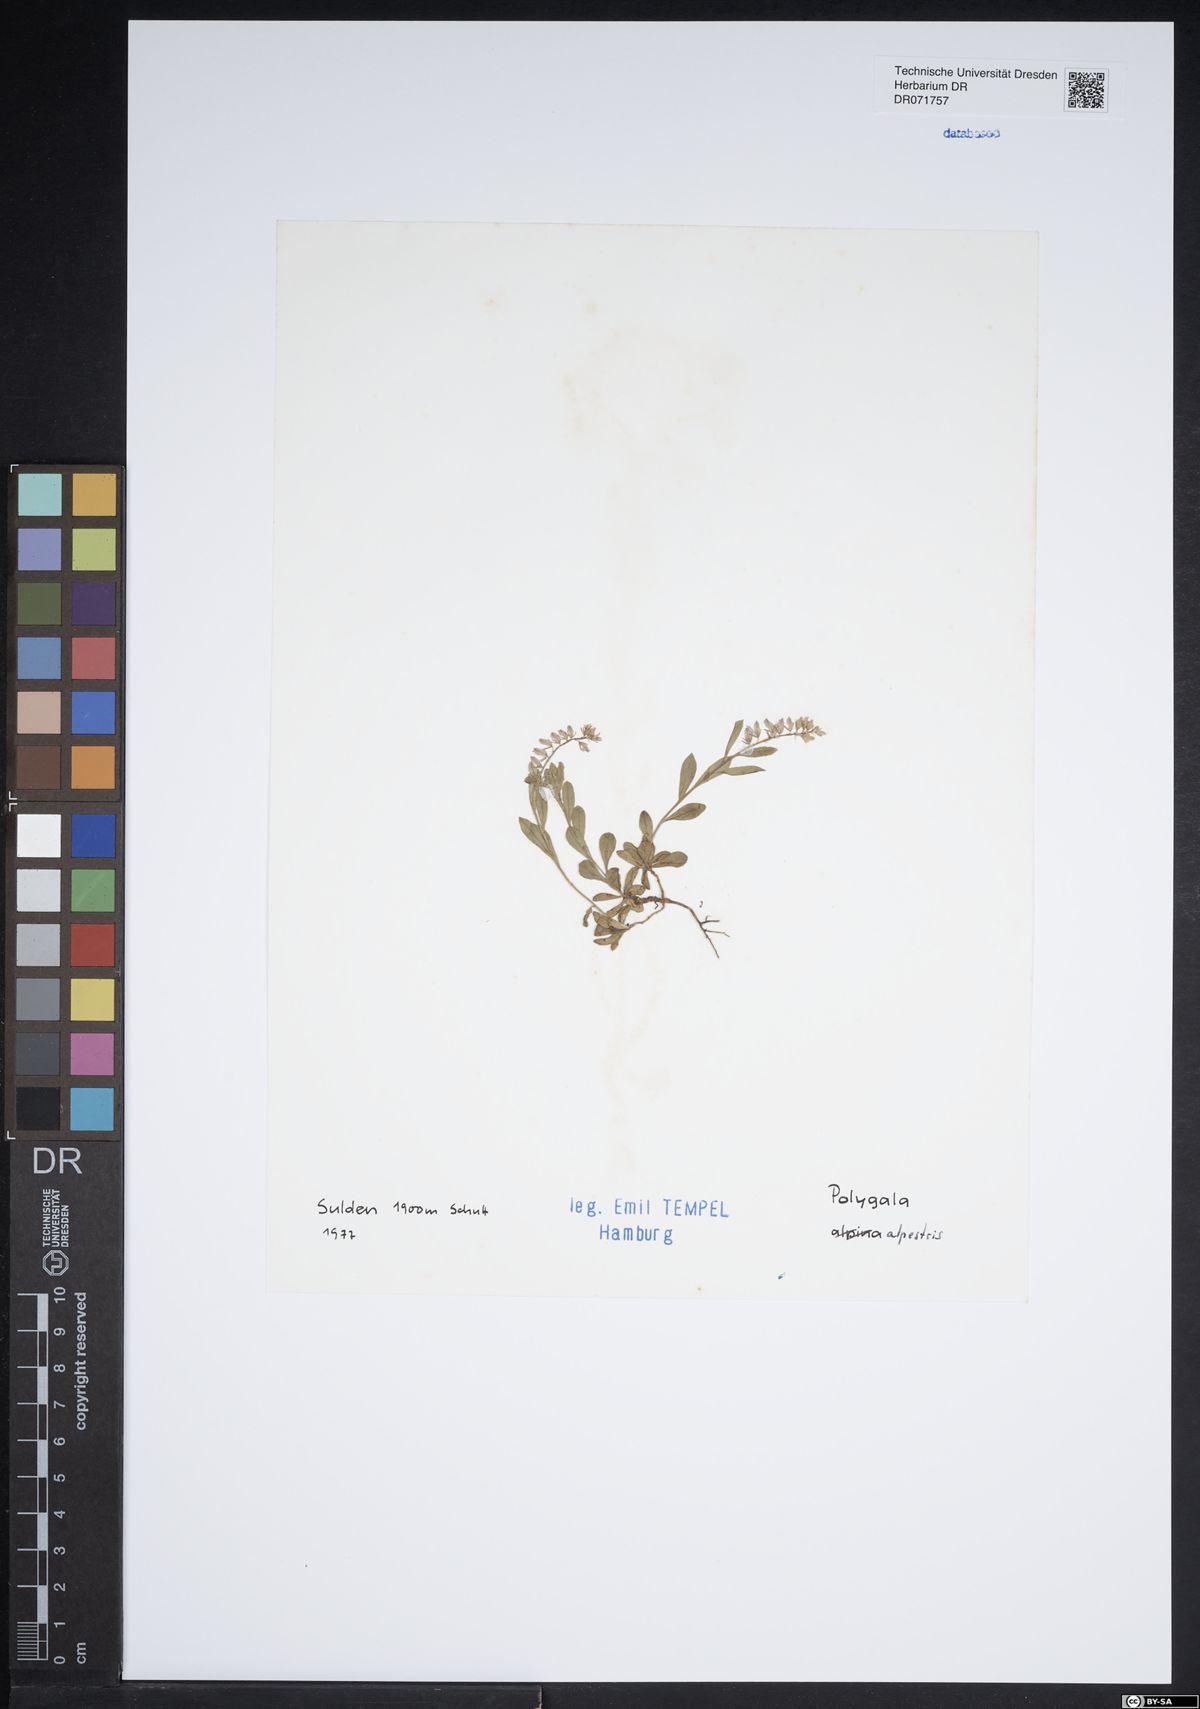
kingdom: Plantae
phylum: Tracheophyta
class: Magnoliopsida
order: Fabales
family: Polygalaceae
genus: Polygala
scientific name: Polygala alpestris
